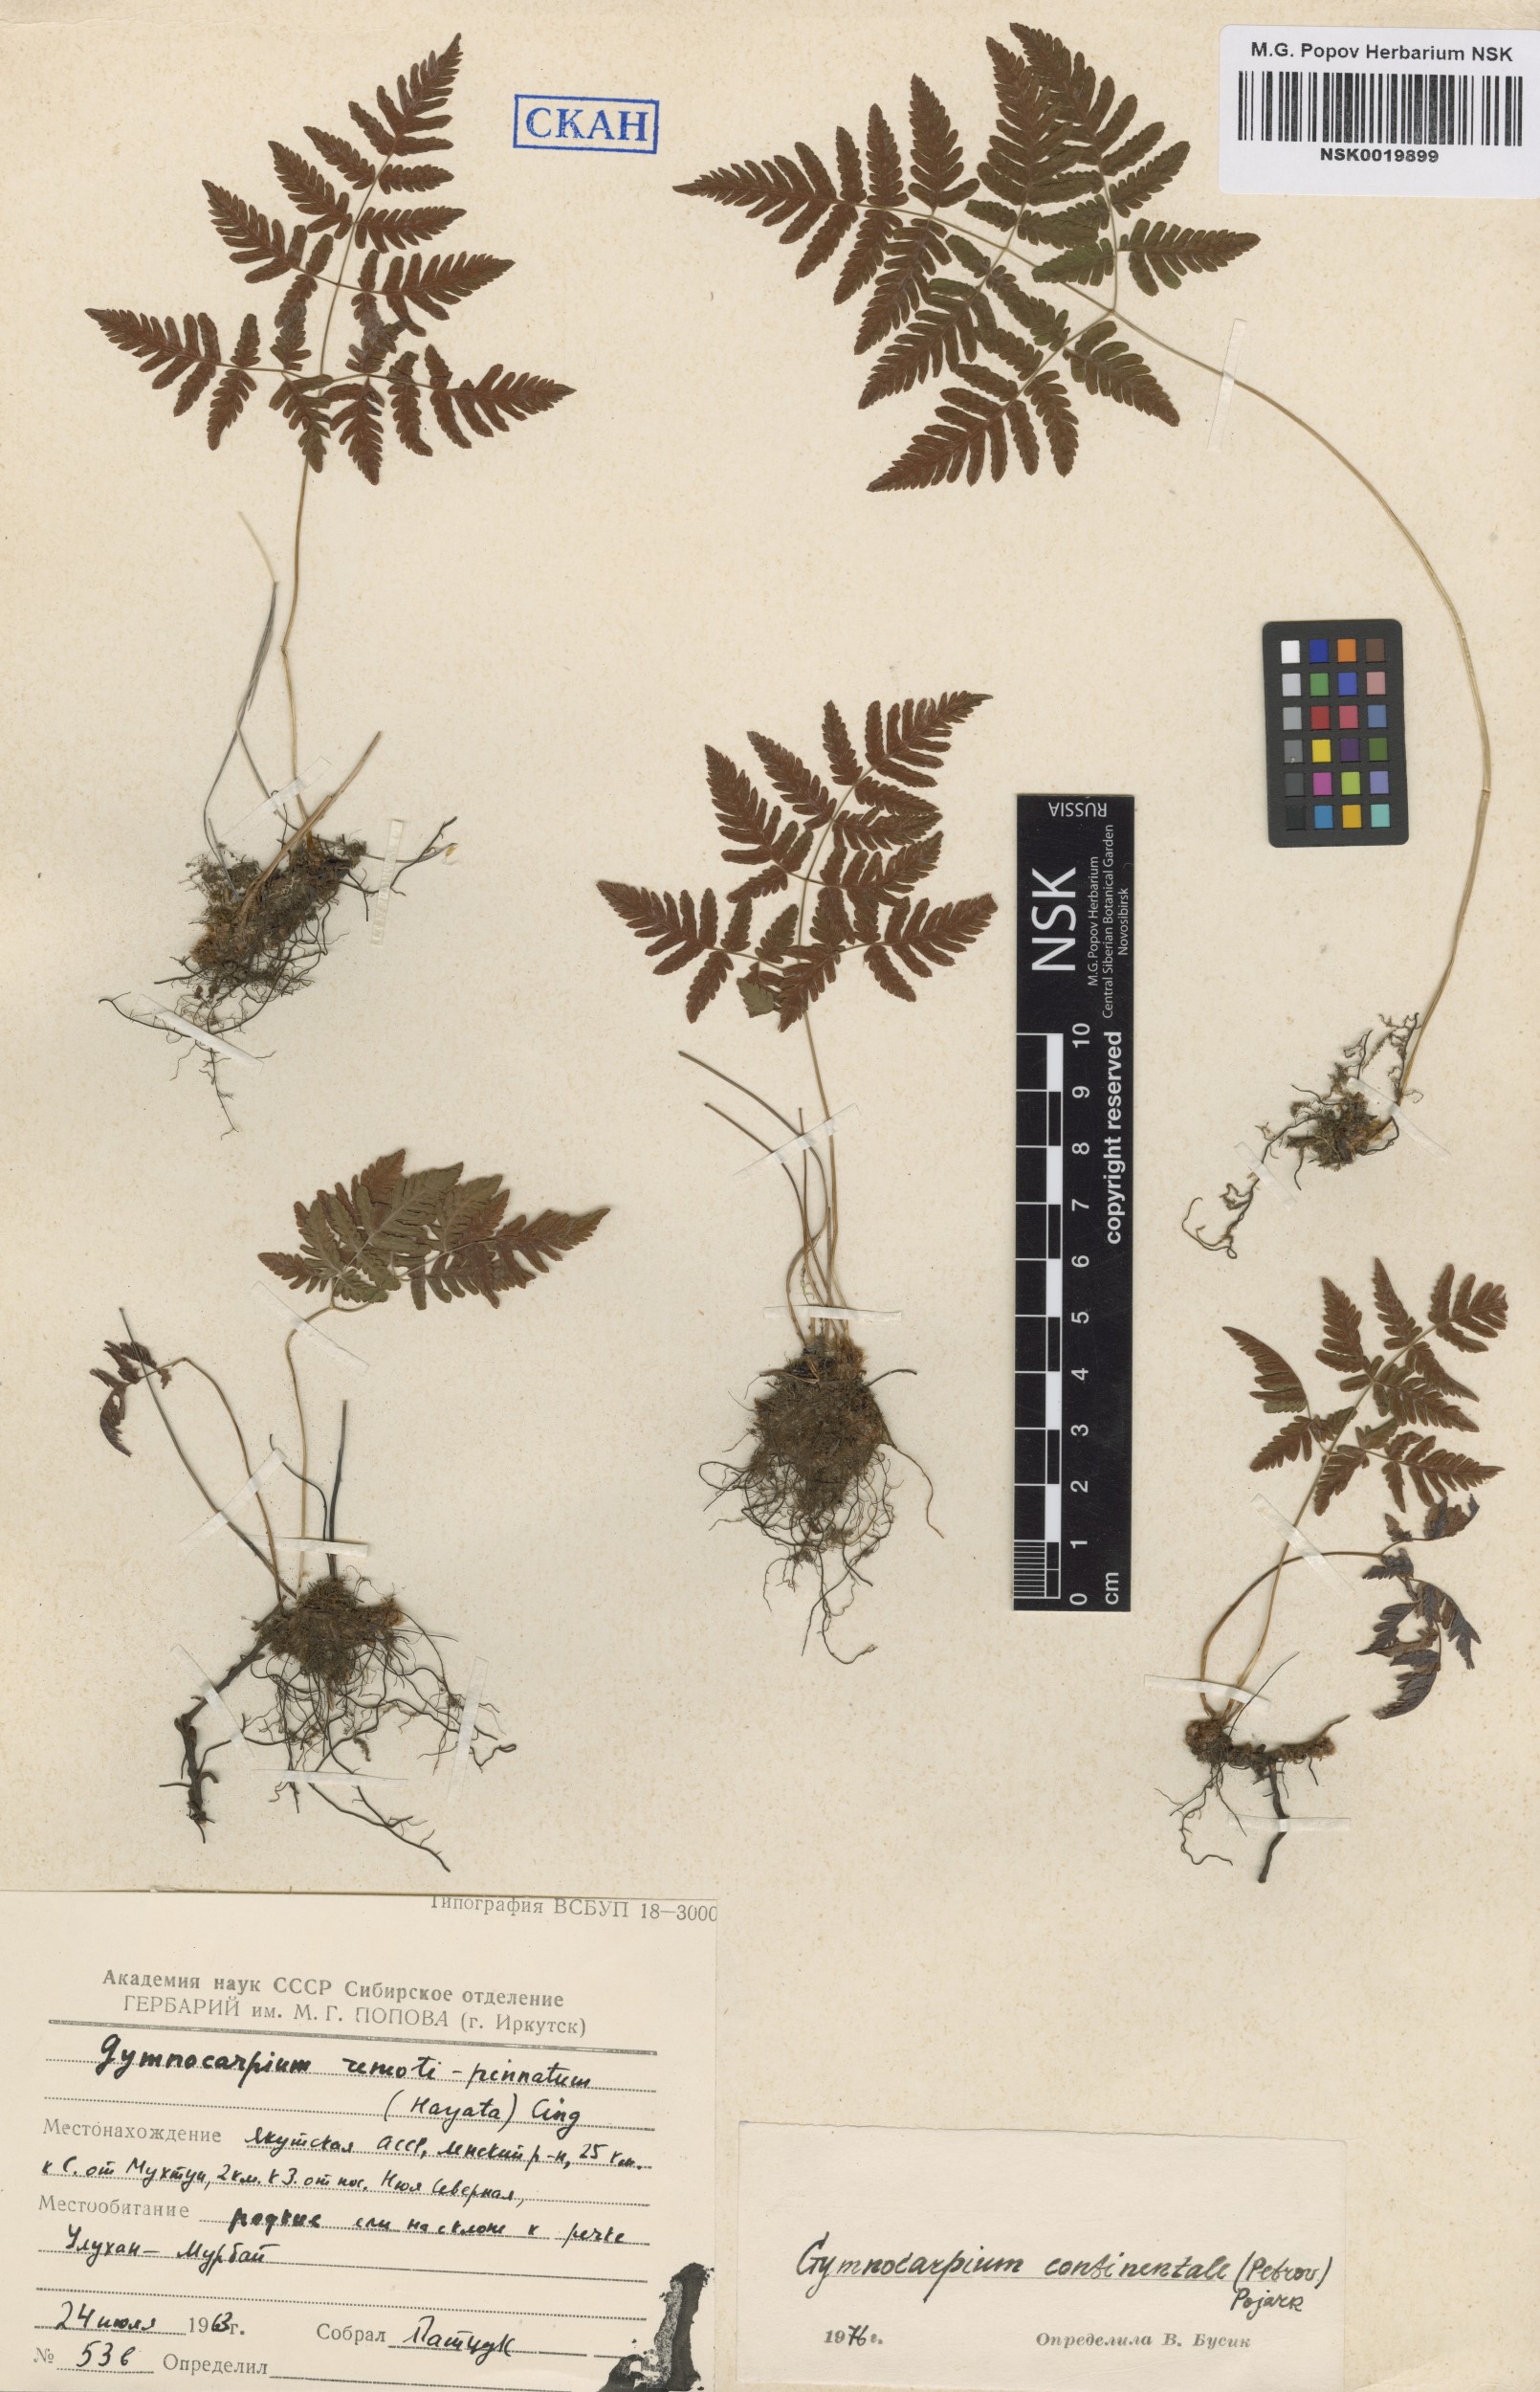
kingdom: Plantae
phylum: Tracheophyta
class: Polypodiopsida
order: Polypodiales
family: Cystopteridaceae
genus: Gymnocarpium
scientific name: Gymnocarpium continentale
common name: Asian oak fern
